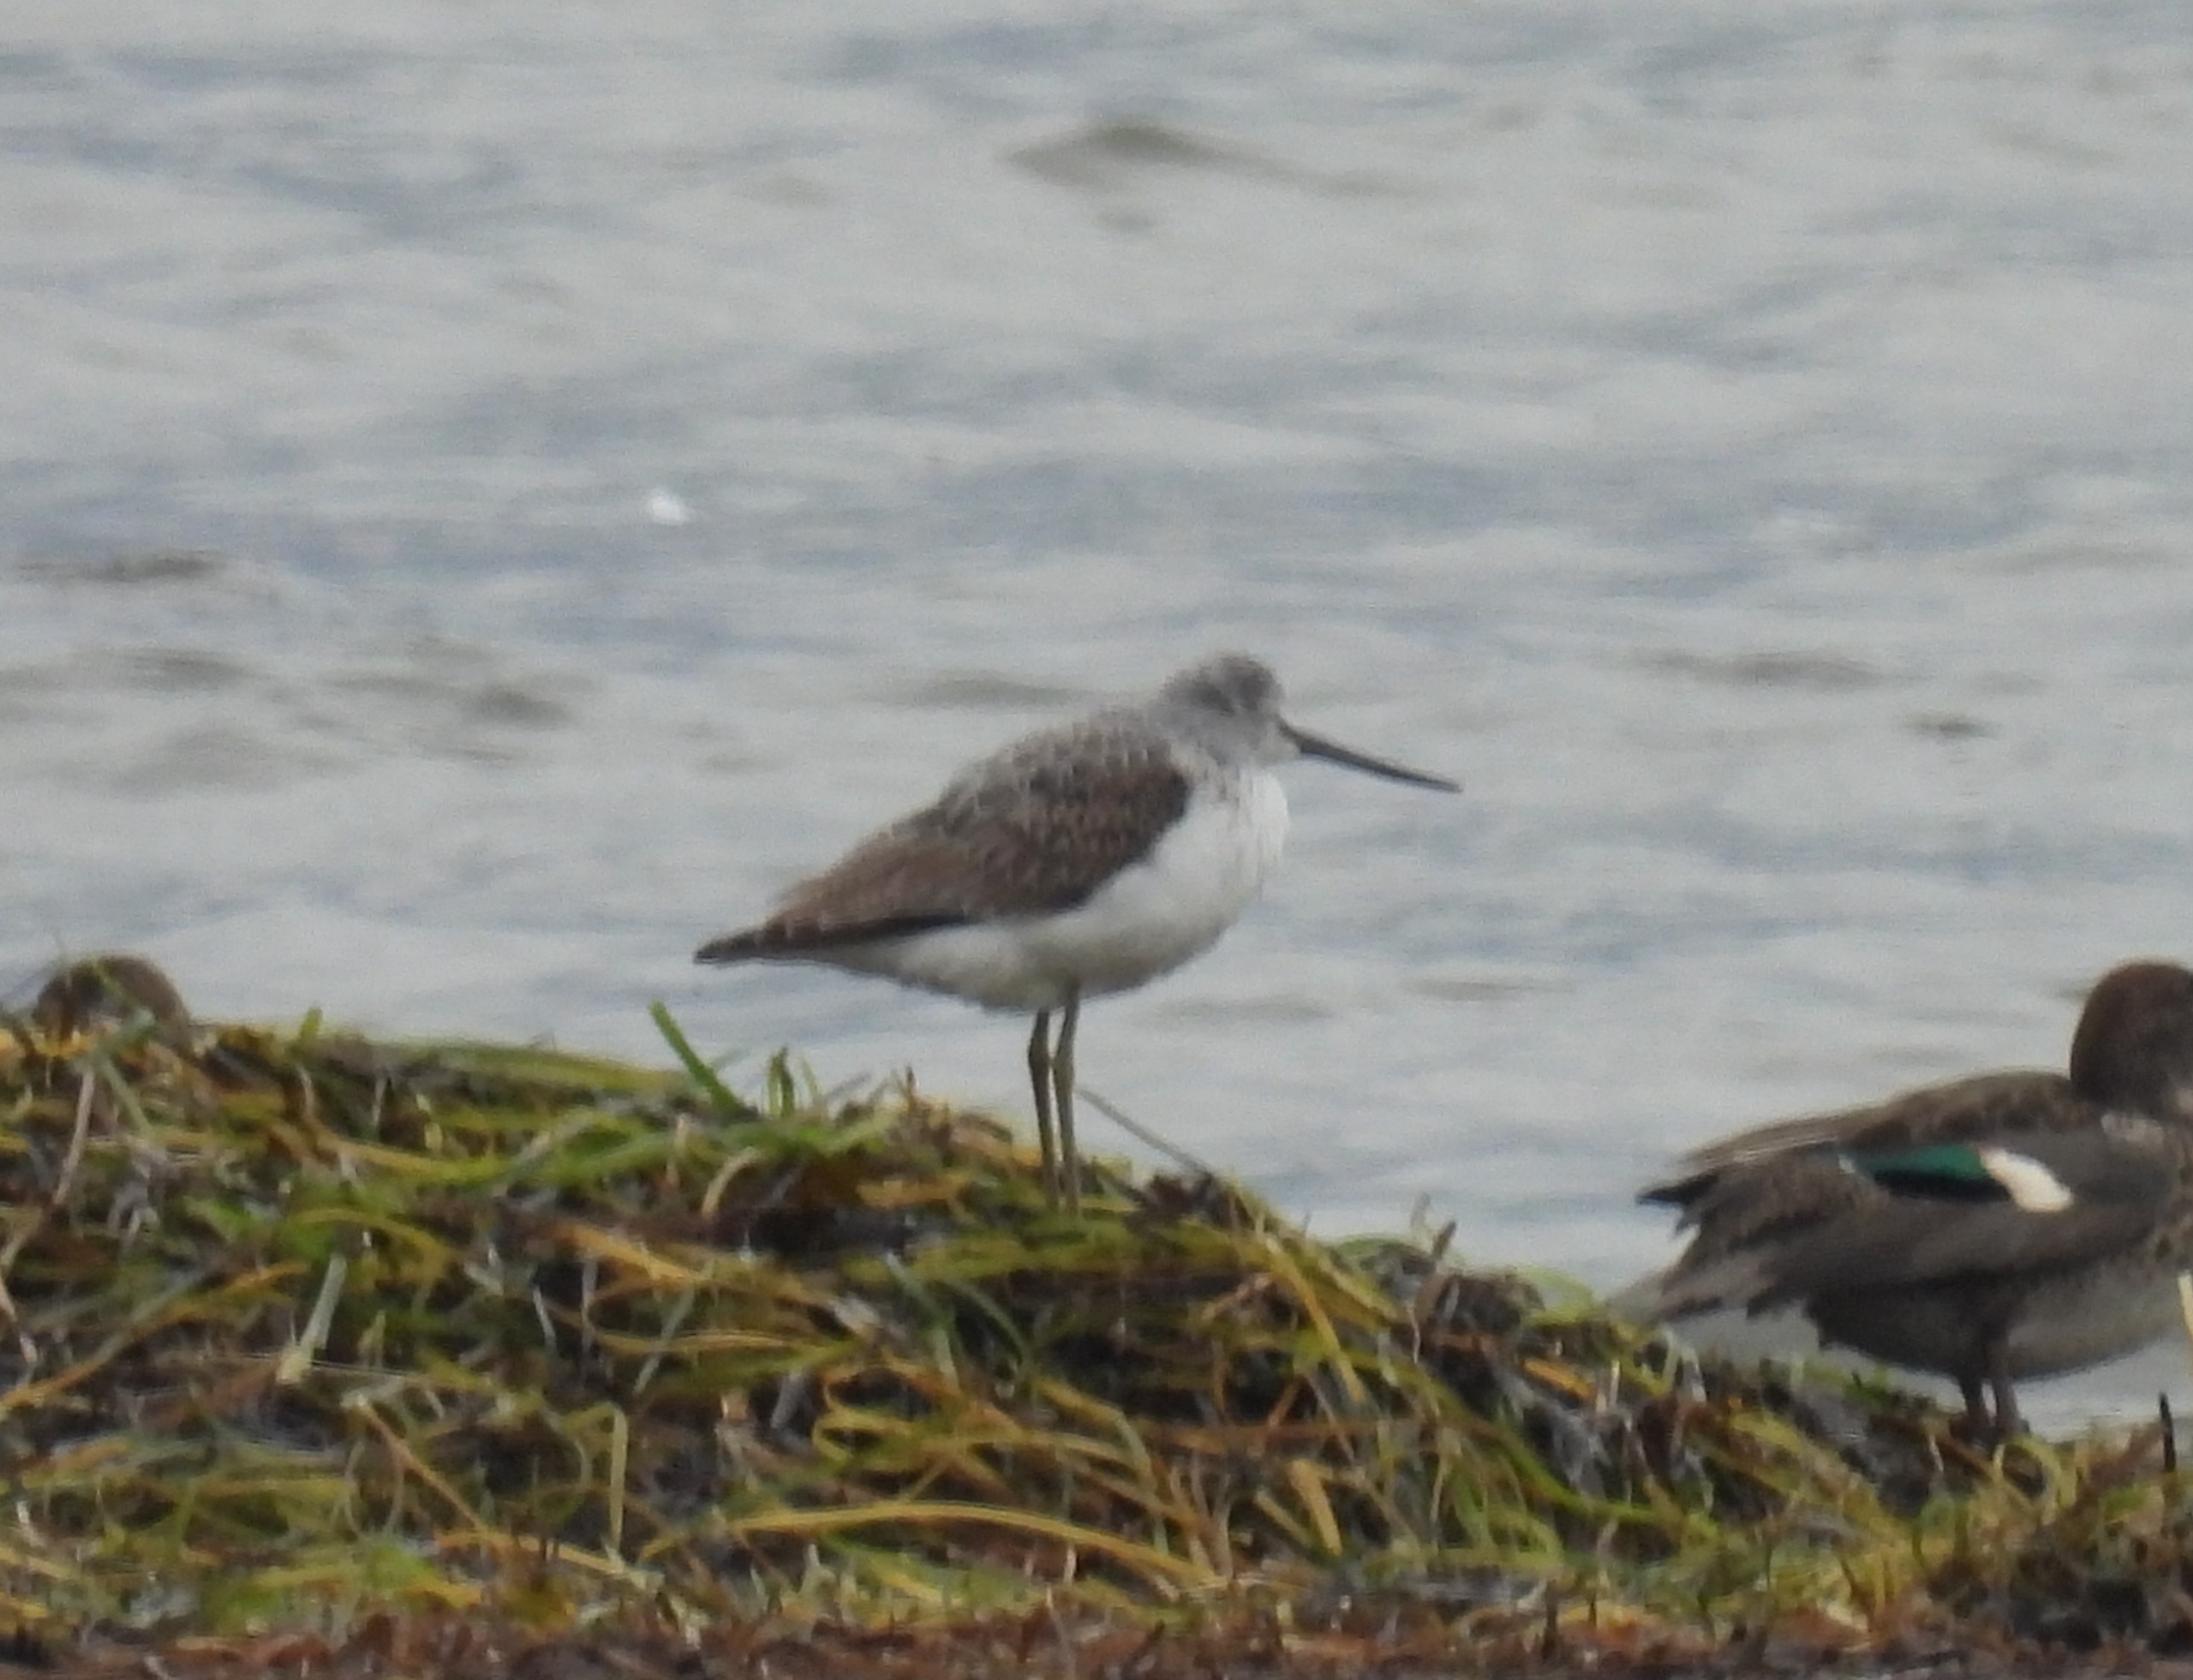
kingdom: Animalia
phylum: Chordata
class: Aves
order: Charadriiformes
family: Scolopacidae
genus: Tringa
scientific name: Tringa nebularia
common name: Hvidklire
